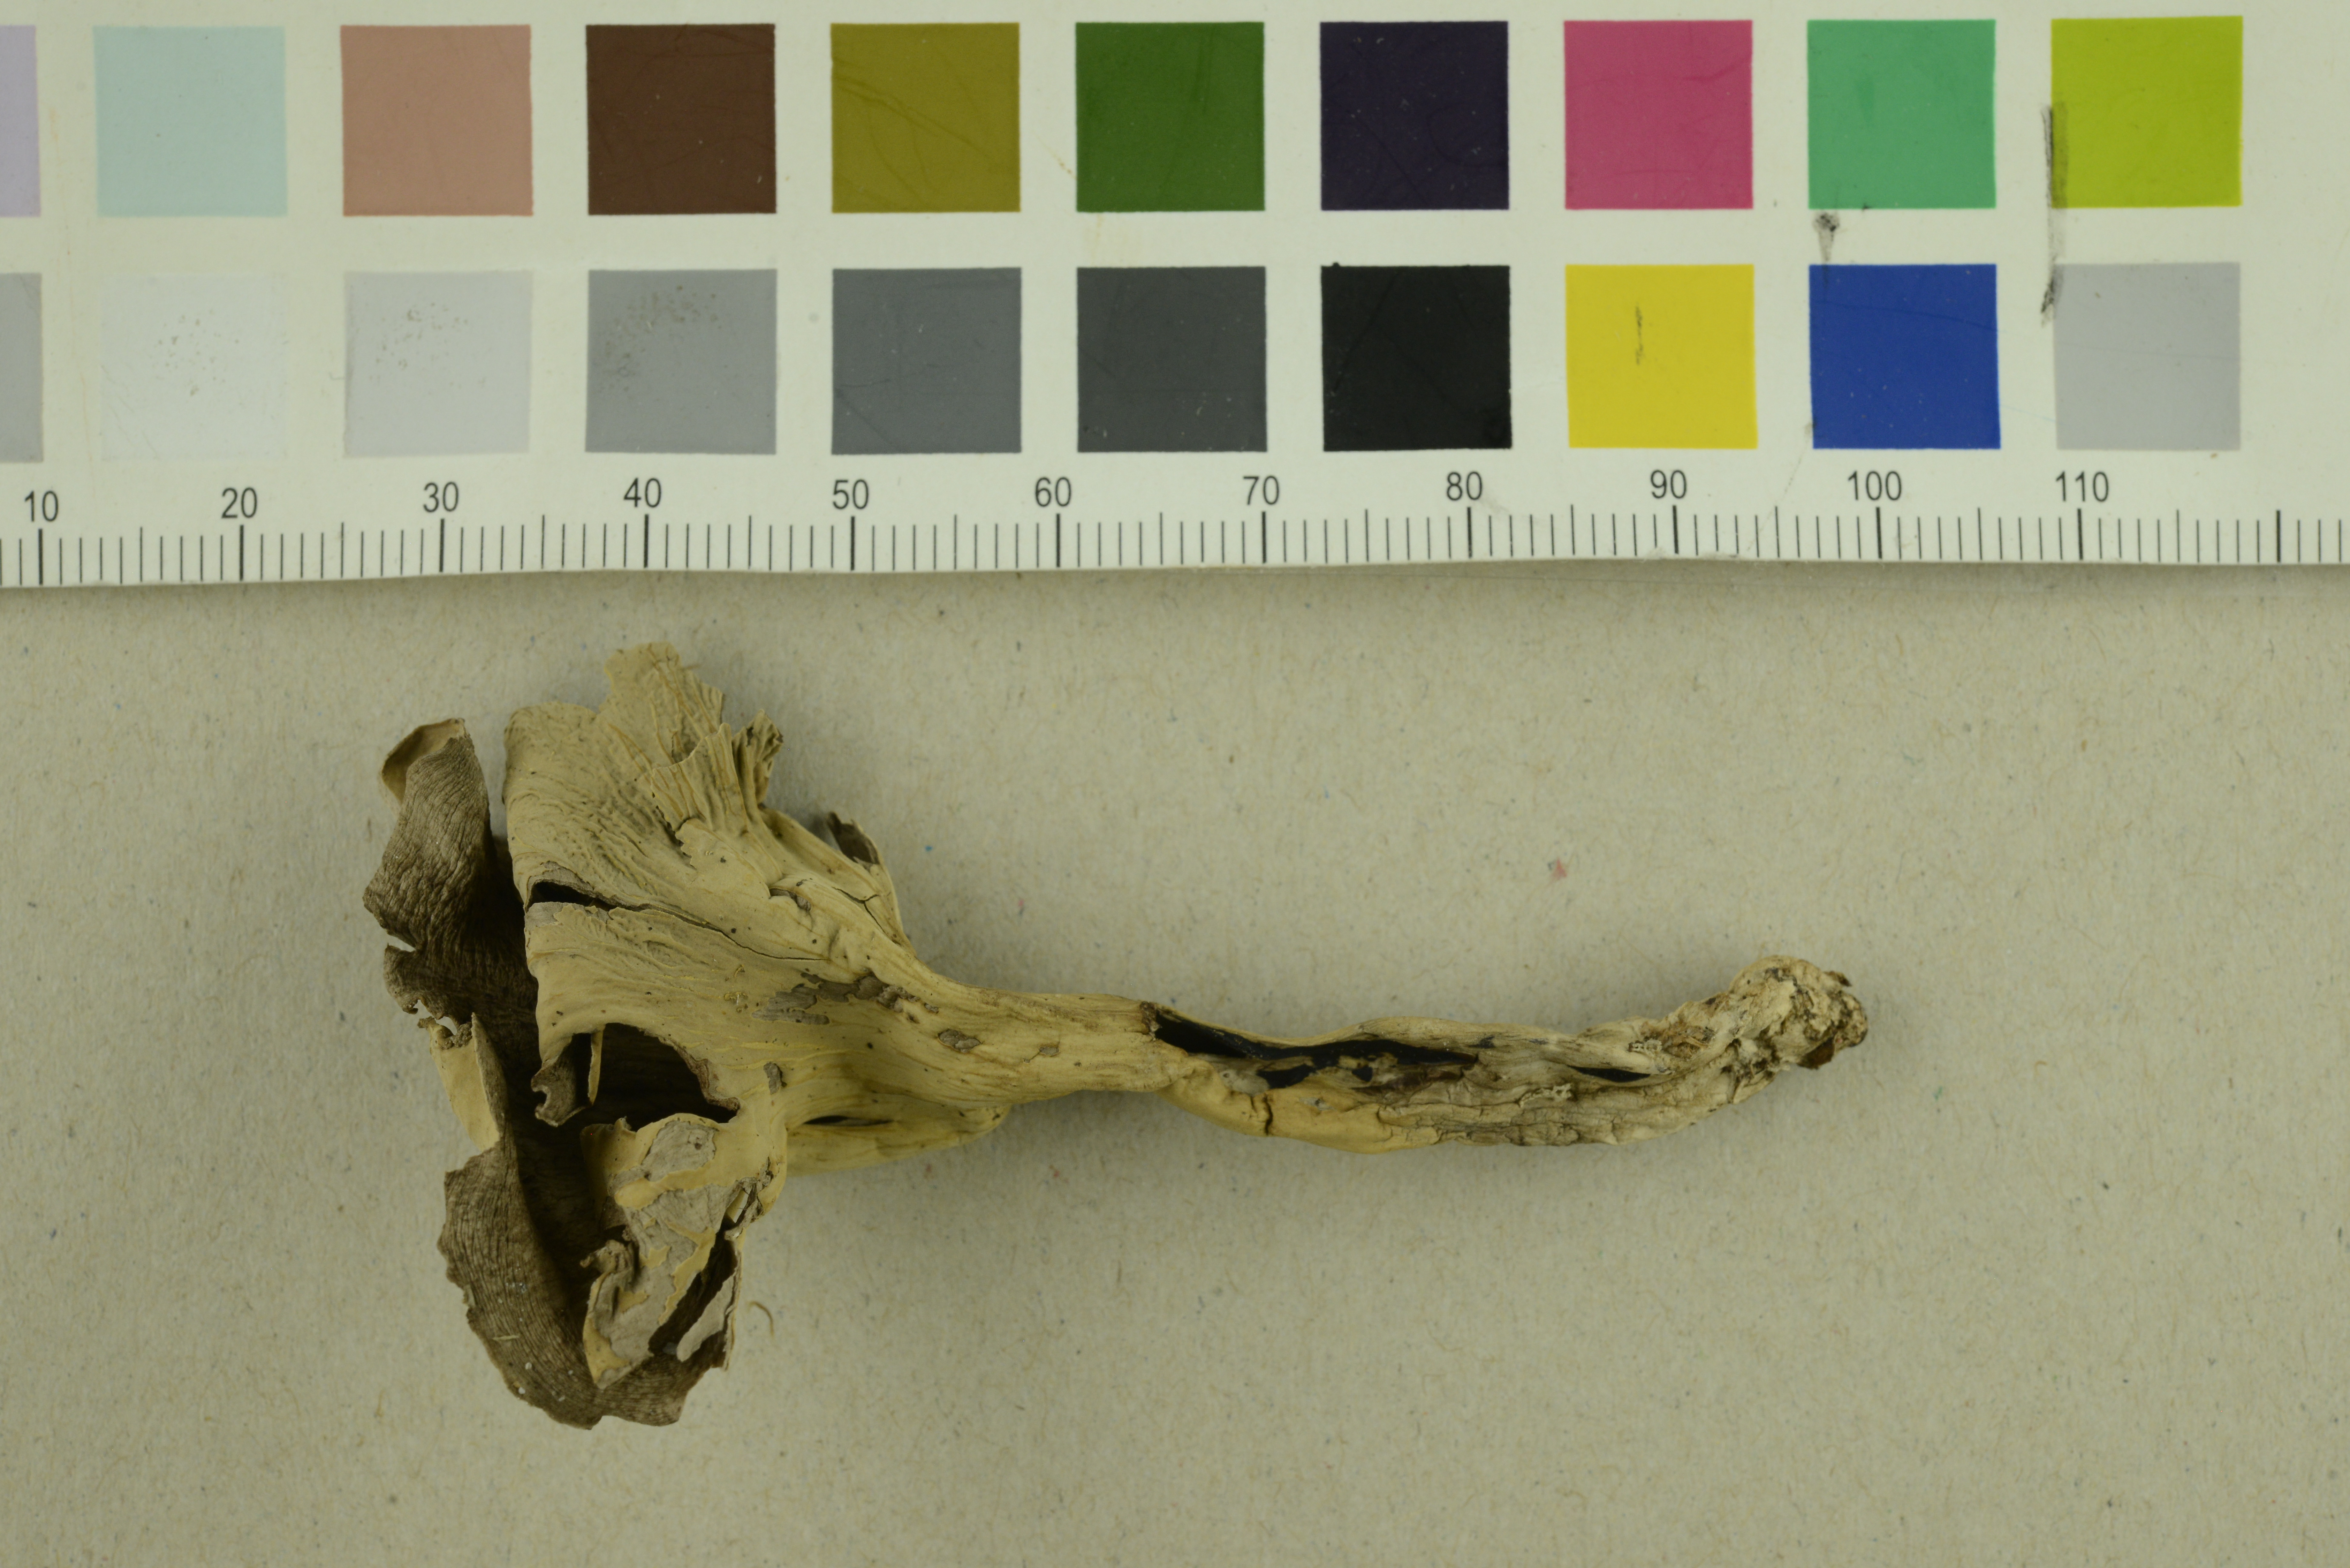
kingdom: Fungi
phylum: Basidiomycota
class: Agaricomycetes
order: Cantharellales
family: Hydnaceae
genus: Cantharellus
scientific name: Cantharellus cinereus
